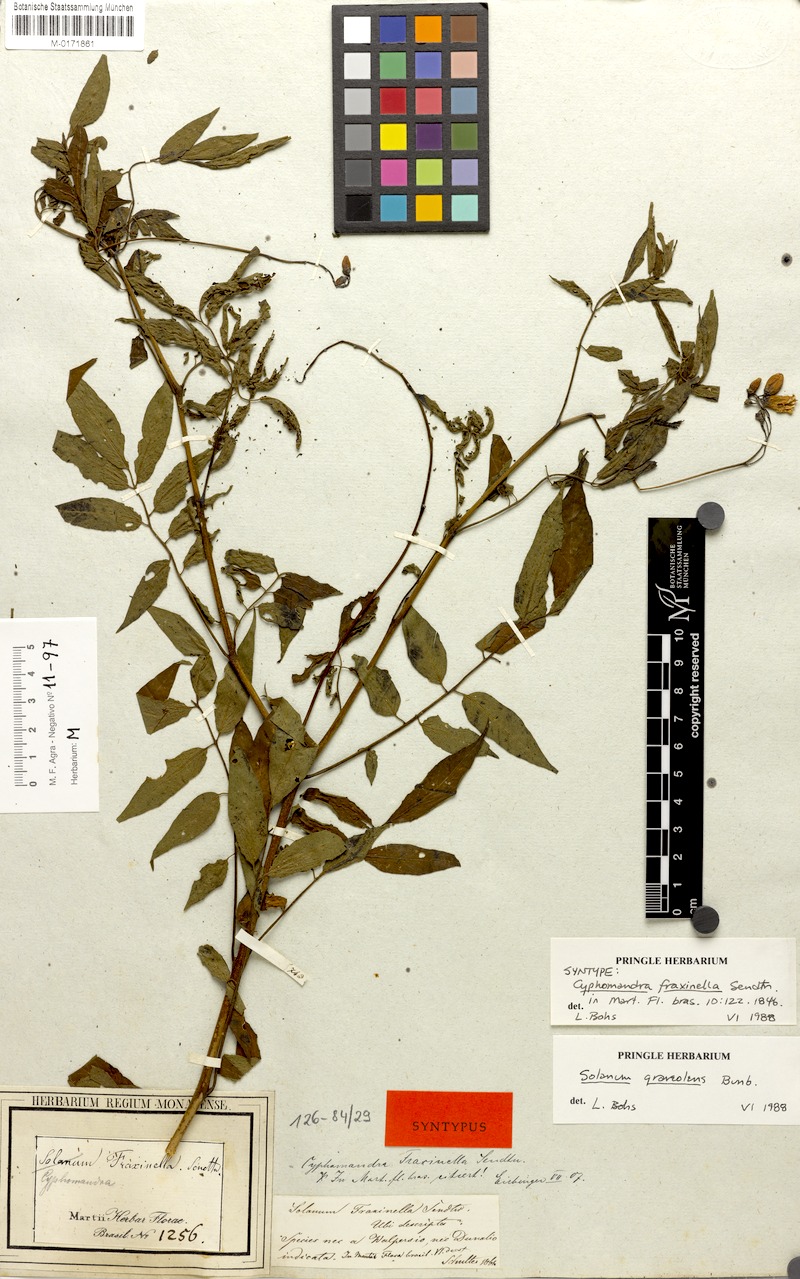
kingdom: Plantae
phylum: Tracheophyta
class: Magnoliopsida
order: Solanales
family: Solanaceae
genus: Solanum
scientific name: Solanum graveolens
